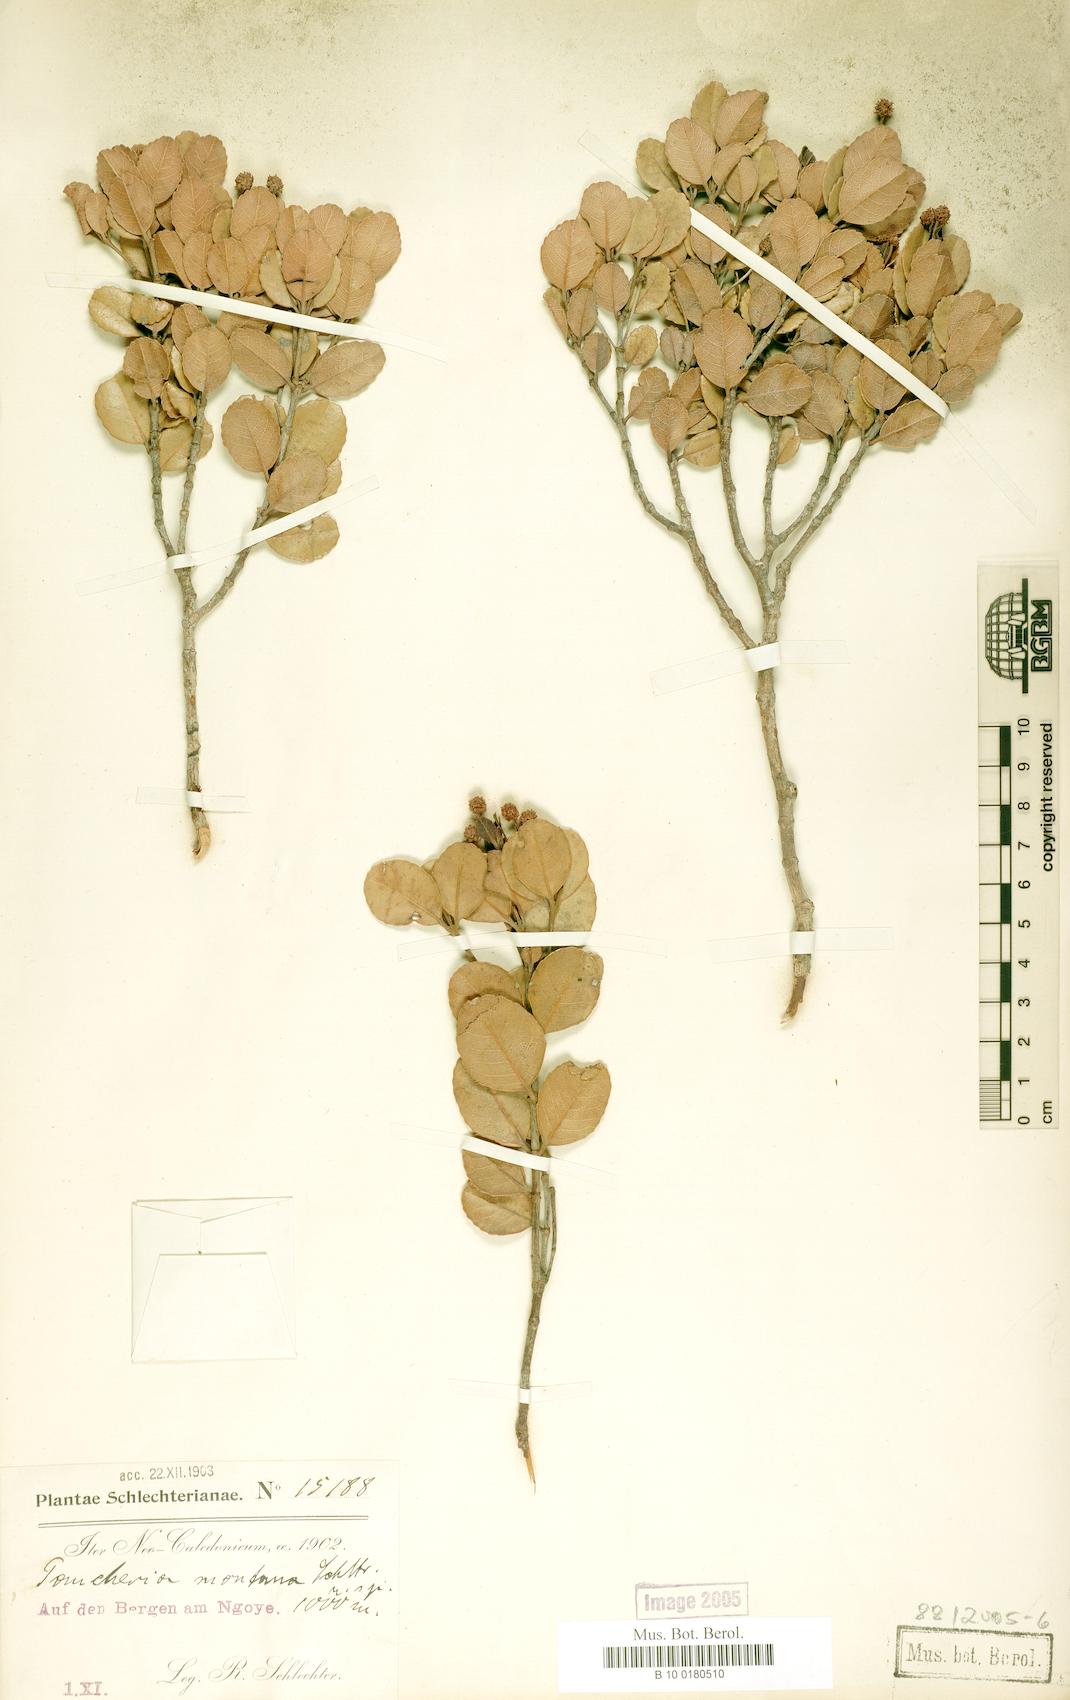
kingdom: Plantae
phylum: Tracheophyta
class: Magnoliopsida
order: Oxalidales
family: Cunoniaceae
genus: Pancheria
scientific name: Pancheria engleriana
